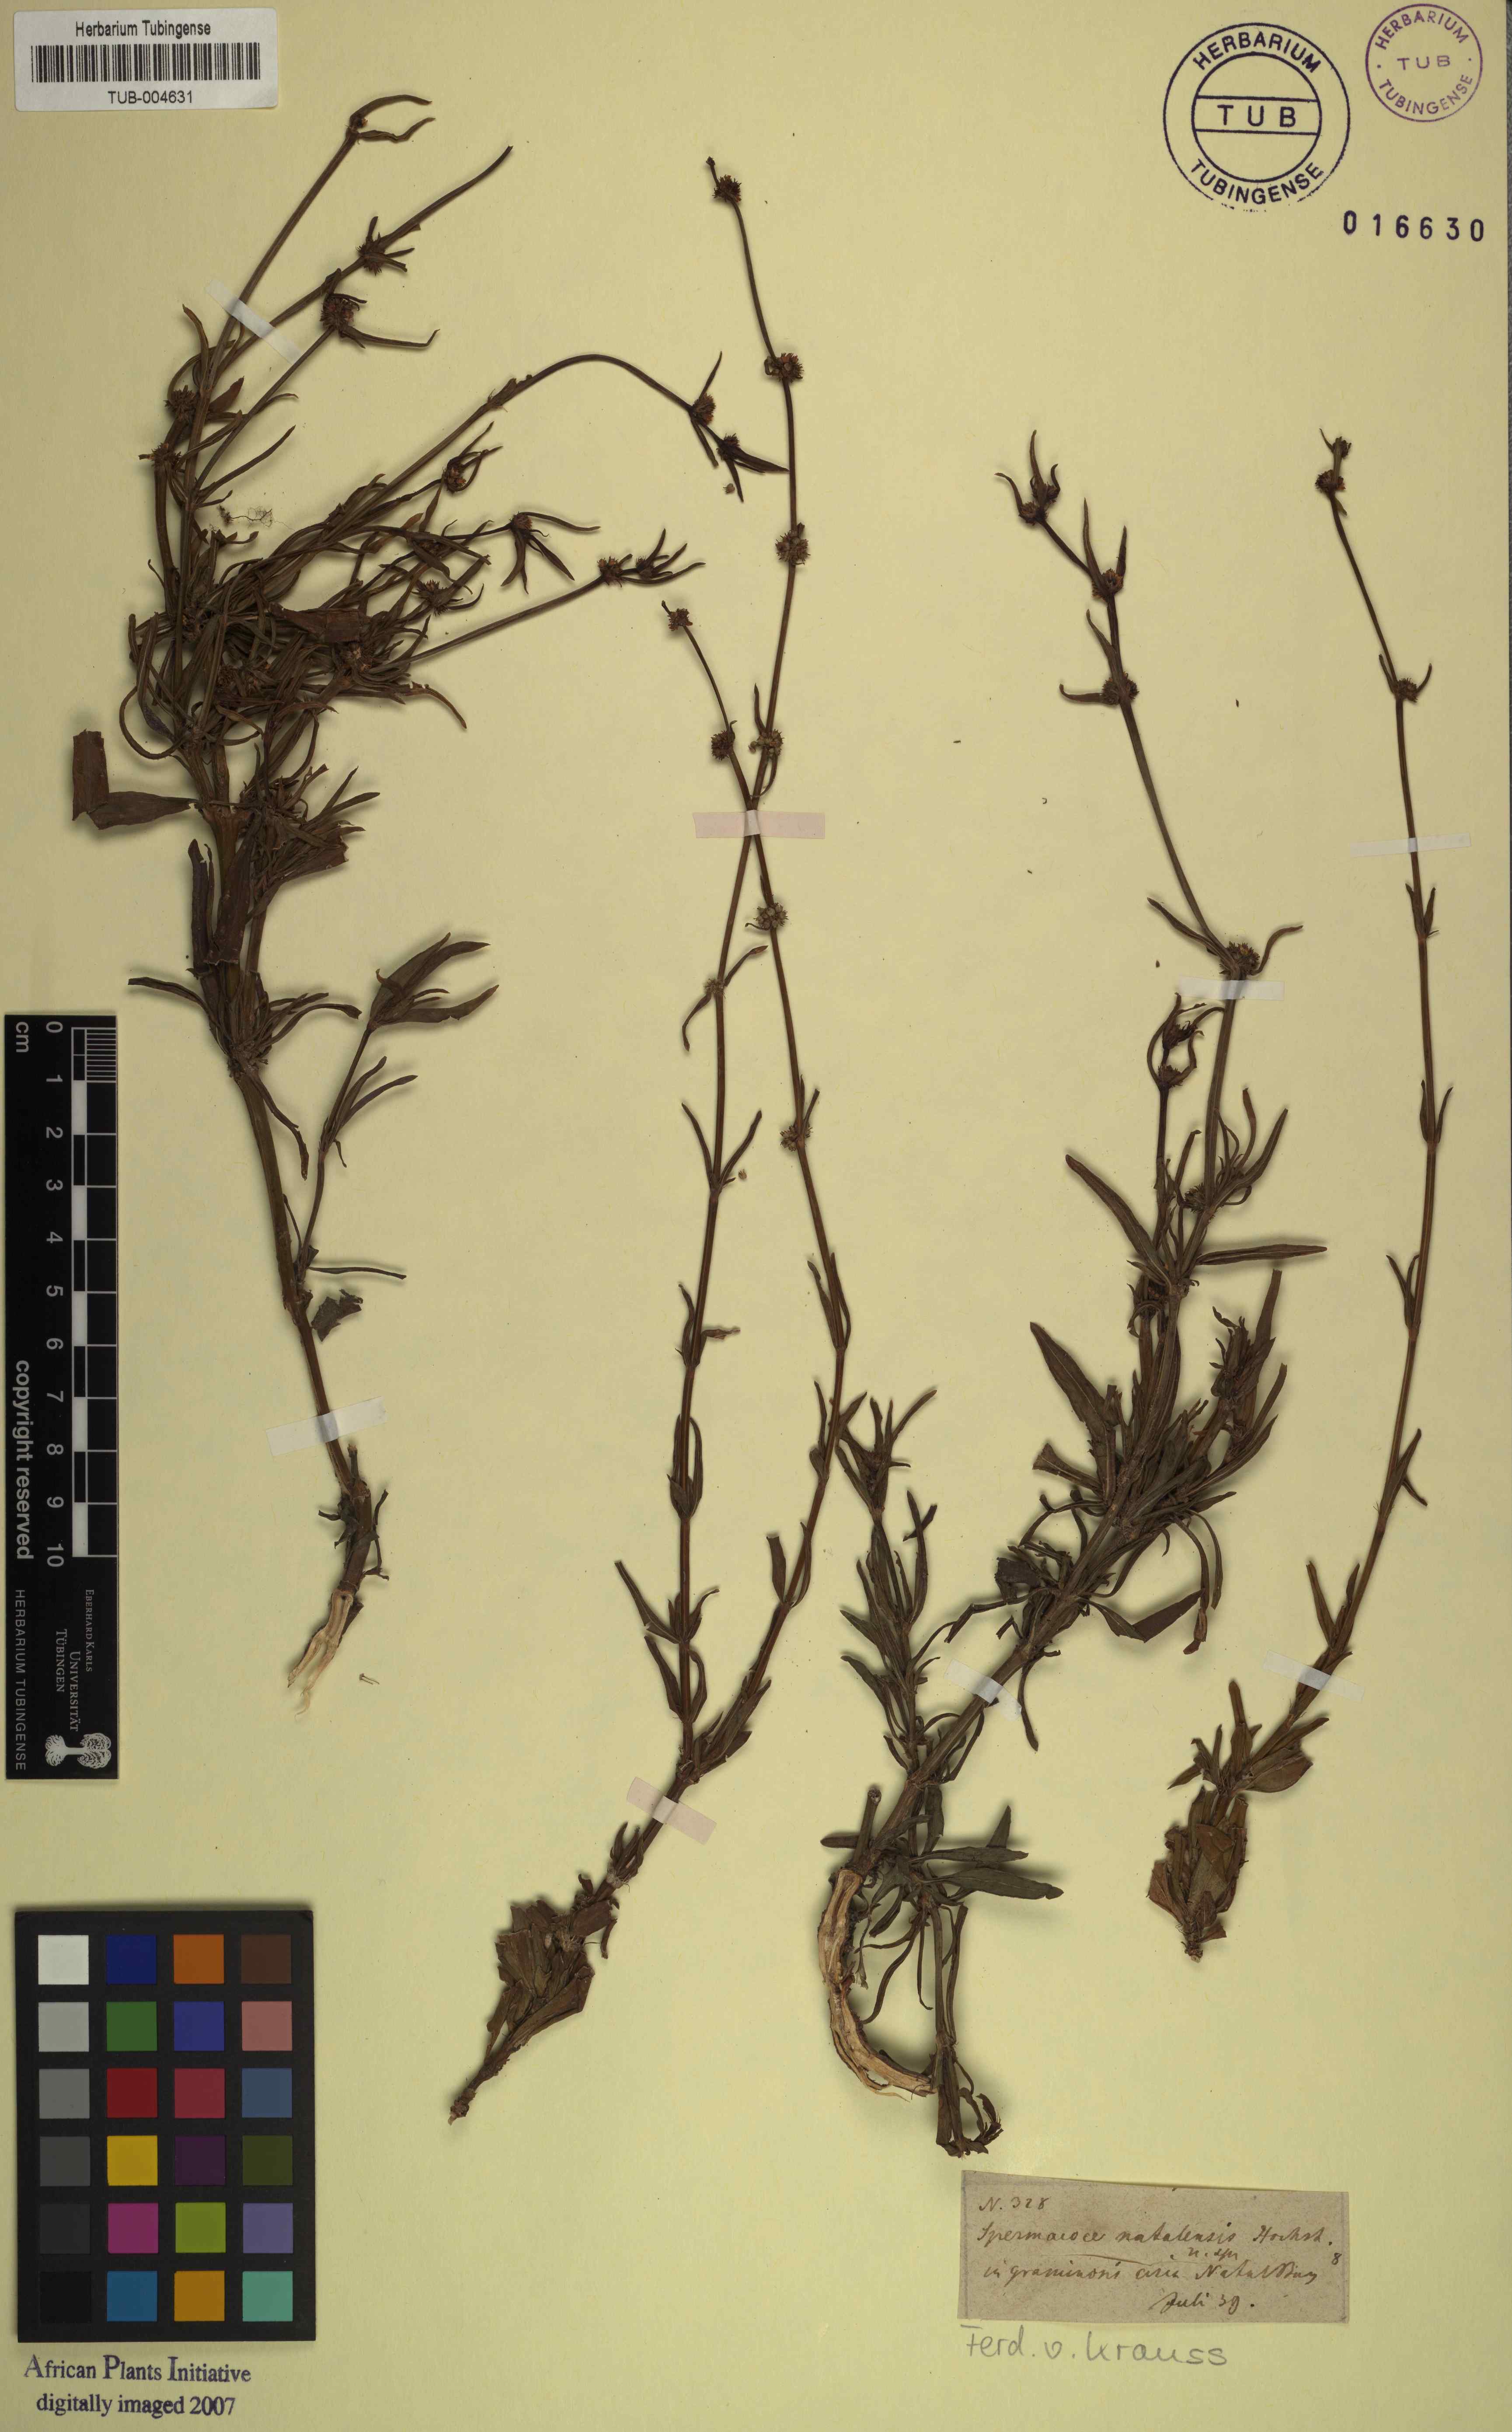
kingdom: Plantae
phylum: Tracheophyta
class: Magnoliopsida
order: Gentianales
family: Rubiaceae
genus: Spermacoce
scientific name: Spermacoce natalensis
